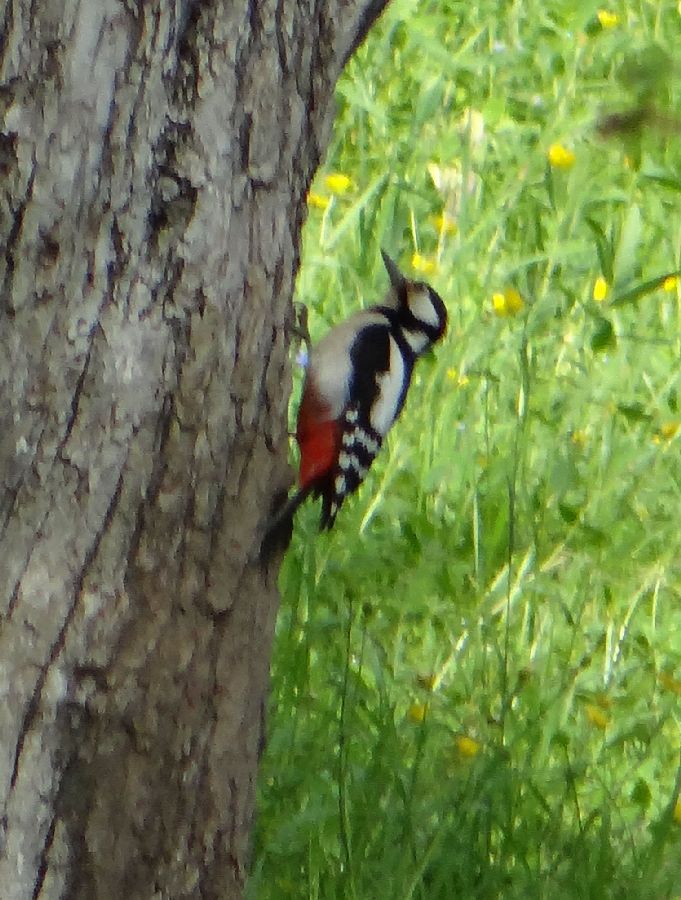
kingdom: Animalia
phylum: Chordata
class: Aves
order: Piciformes
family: Picidae
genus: Dendrocopos
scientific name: Dendrocopos major
